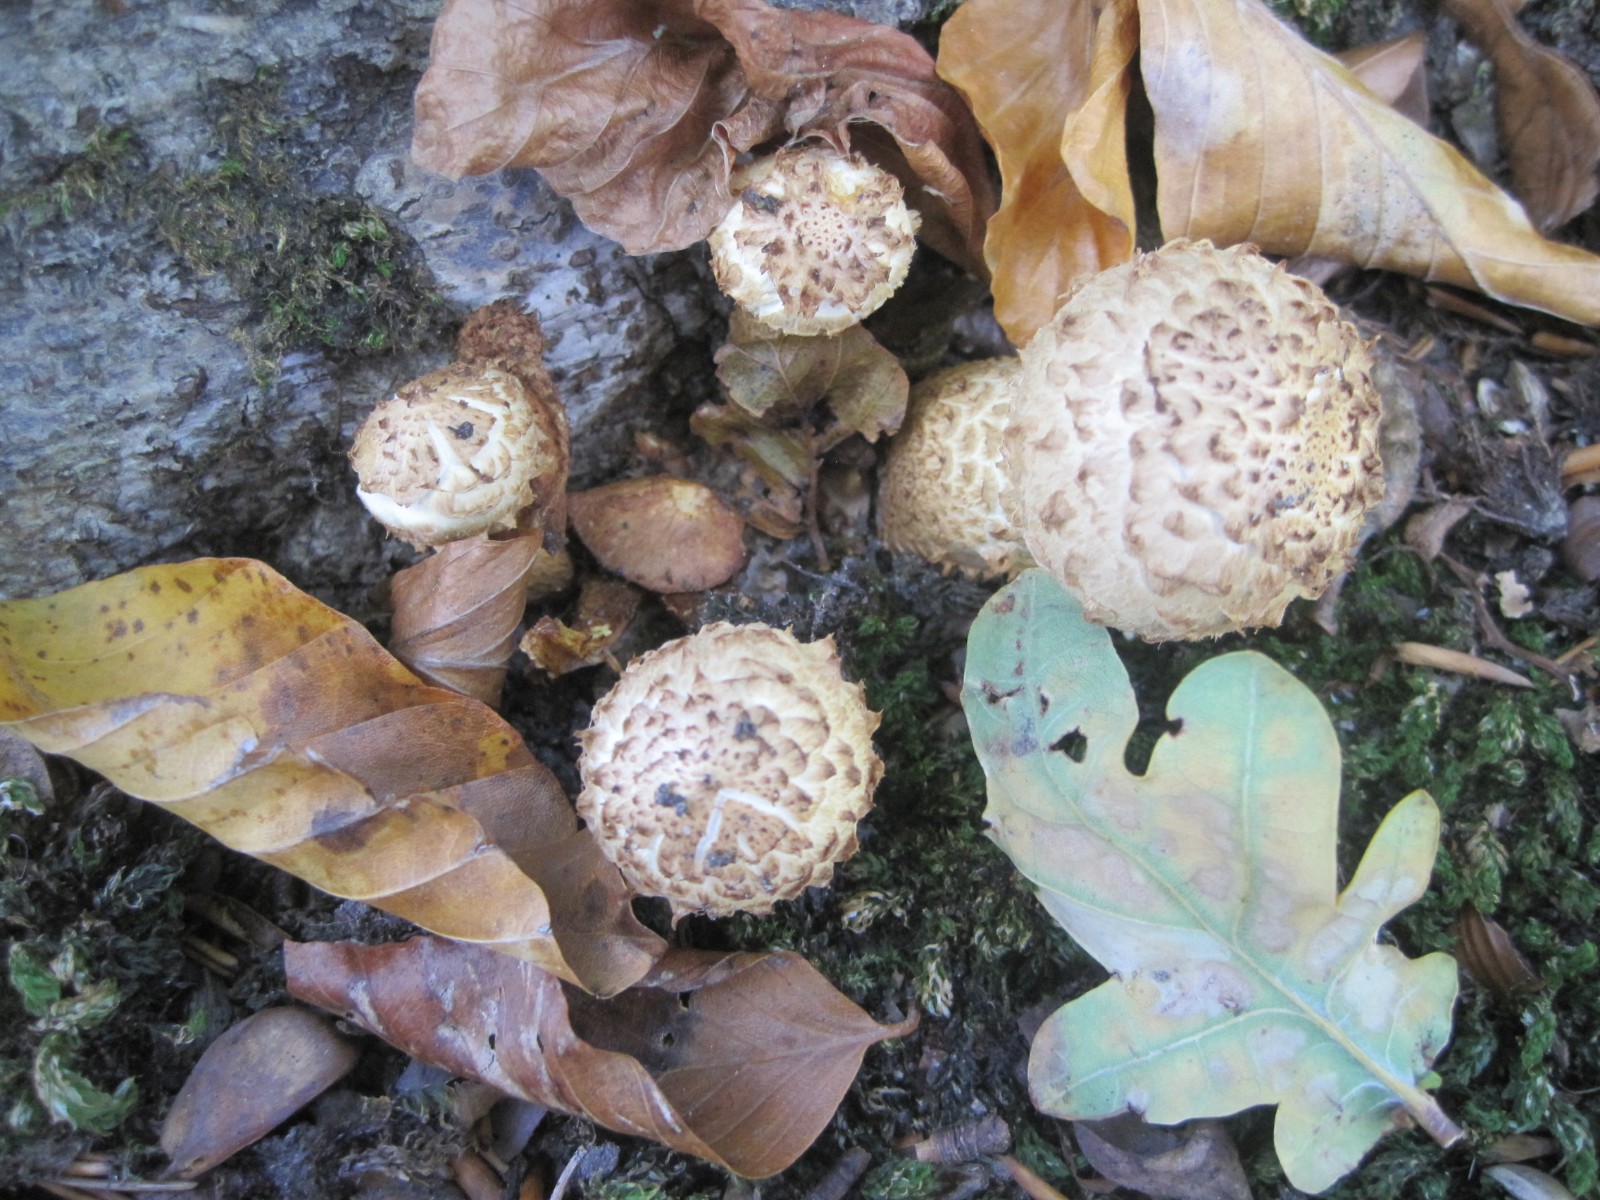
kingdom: Fungi
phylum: Basidiomycota
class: Agaricomycetes
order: Agaricales
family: Strophariaceae
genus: Pholiota
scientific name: Pholiota squarrosa
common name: krumskællet skælhat
